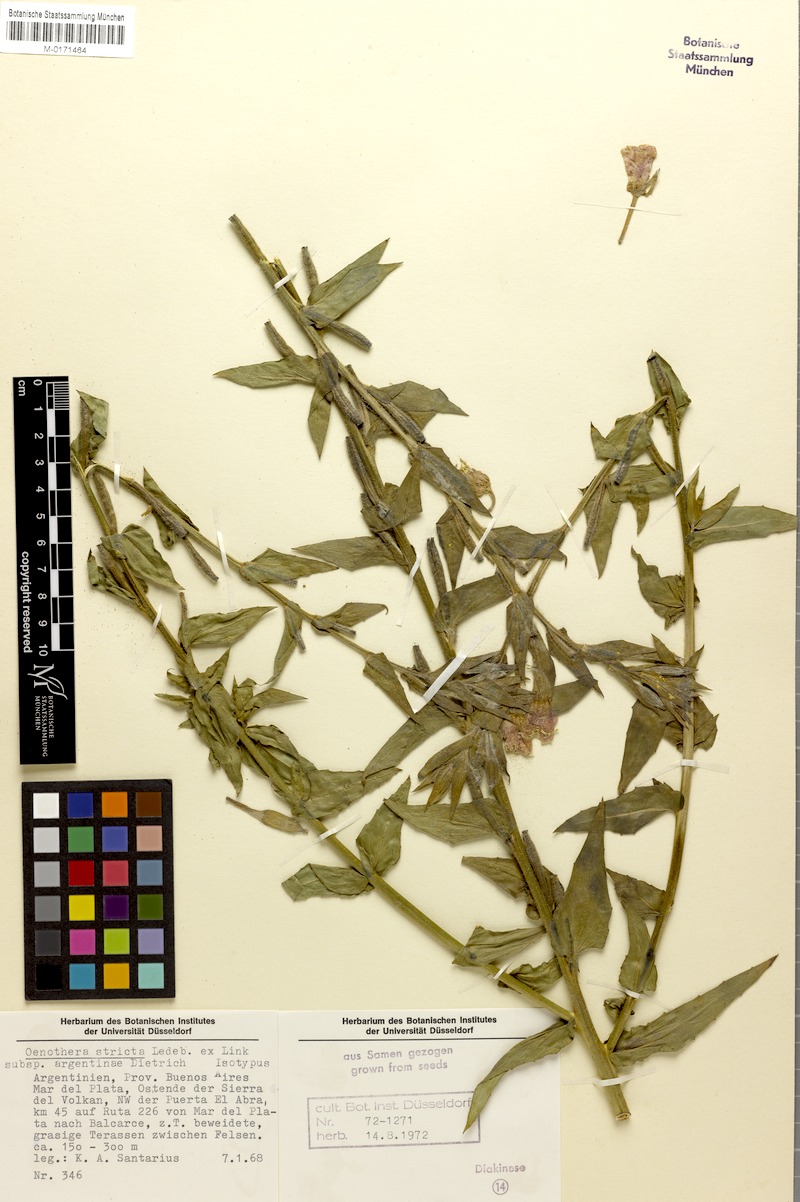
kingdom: Plantae
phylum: Tracheophyta
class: Magnoliopsida
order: Myrtales
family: Onagraceae
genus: Oenothera
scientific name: Oenothera parodiana
